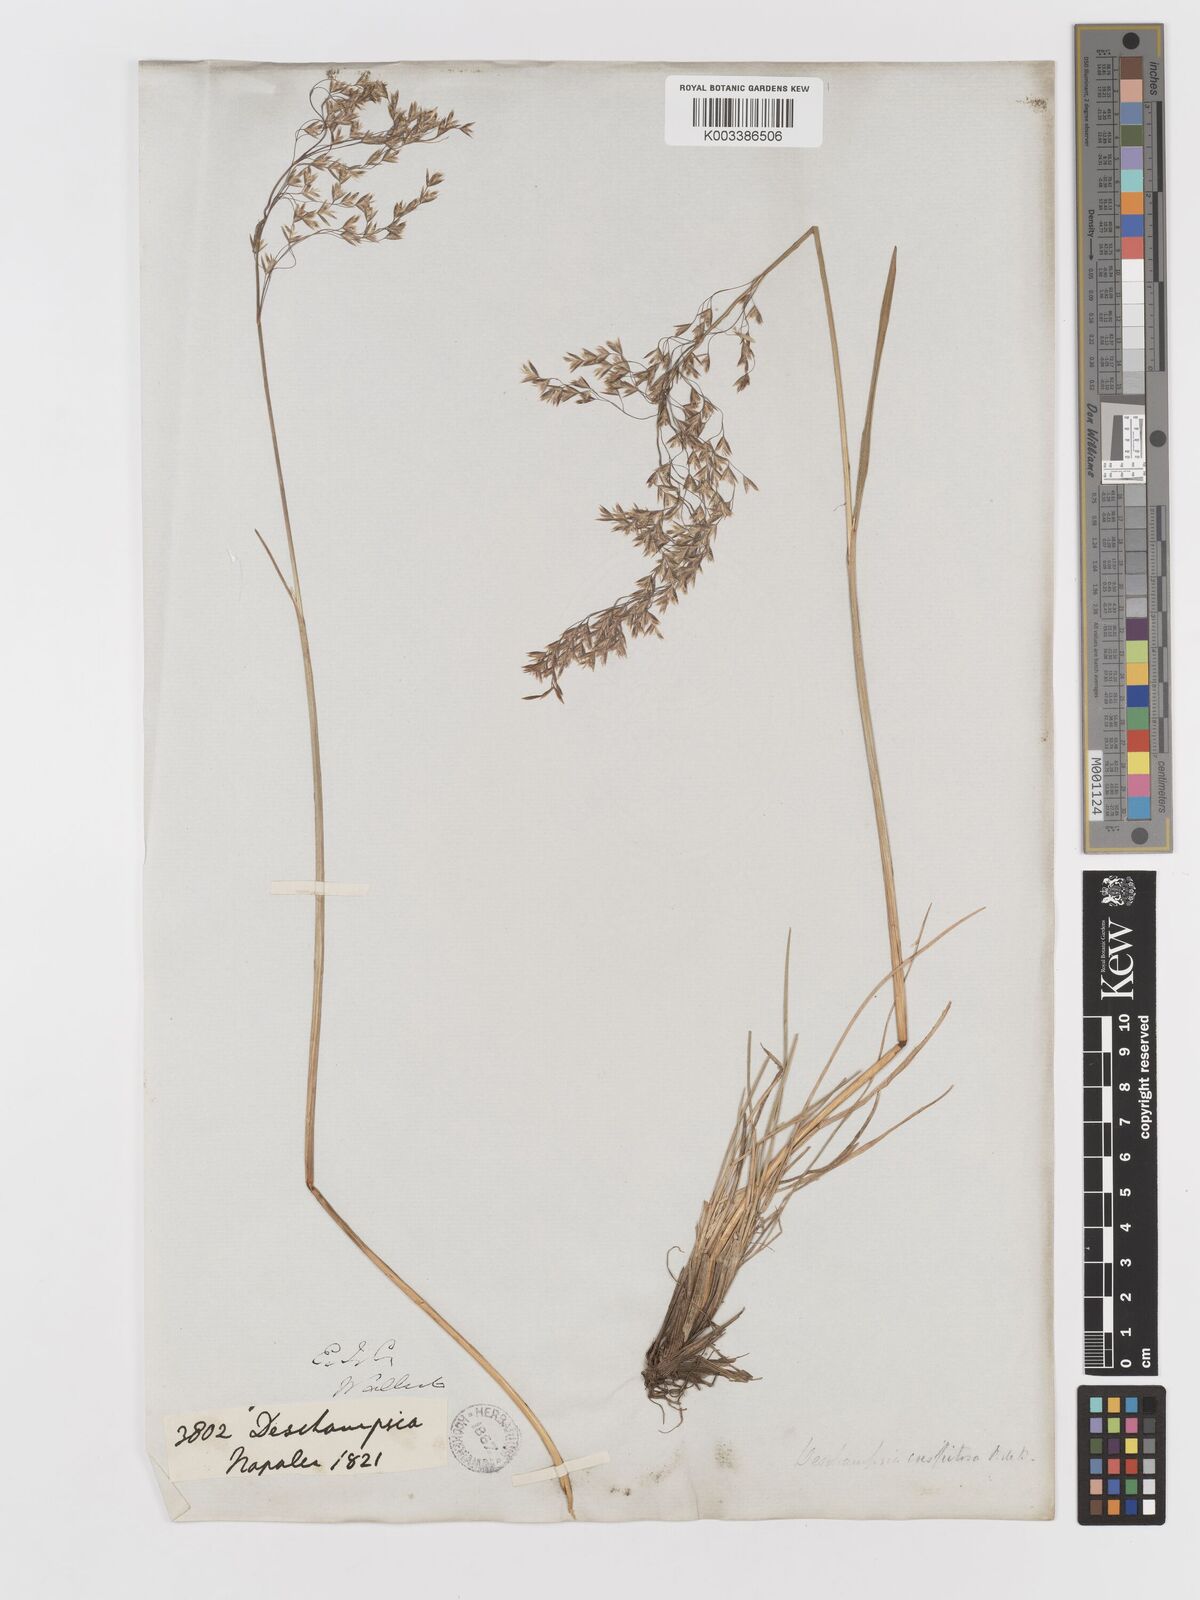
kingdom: Plantae
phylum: Tracheophyta
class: Liliopsida
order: Poales
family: Poaceae
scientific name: Poaceae
